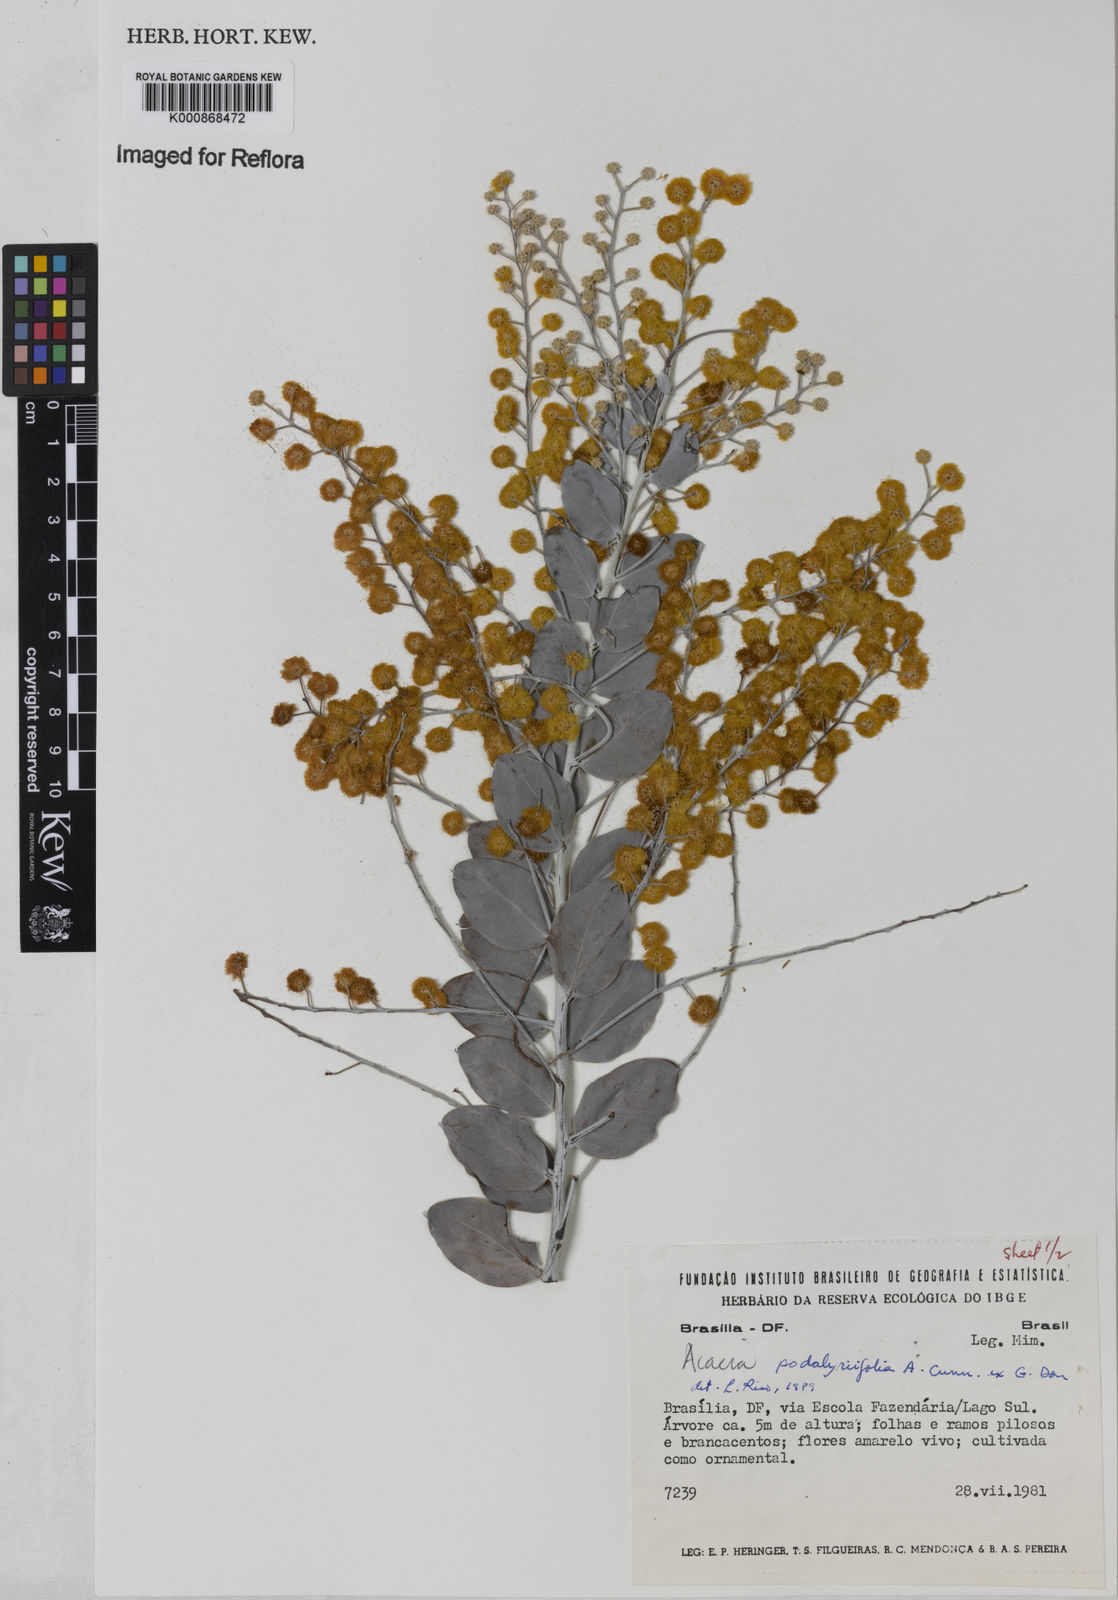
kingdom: Plantae
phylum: Tracheophyta
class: Magnoliopsida
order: Fabales
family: Fabaceae
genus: Acacia
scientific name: Acacia podalyriifolia
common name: Pearl wattle
